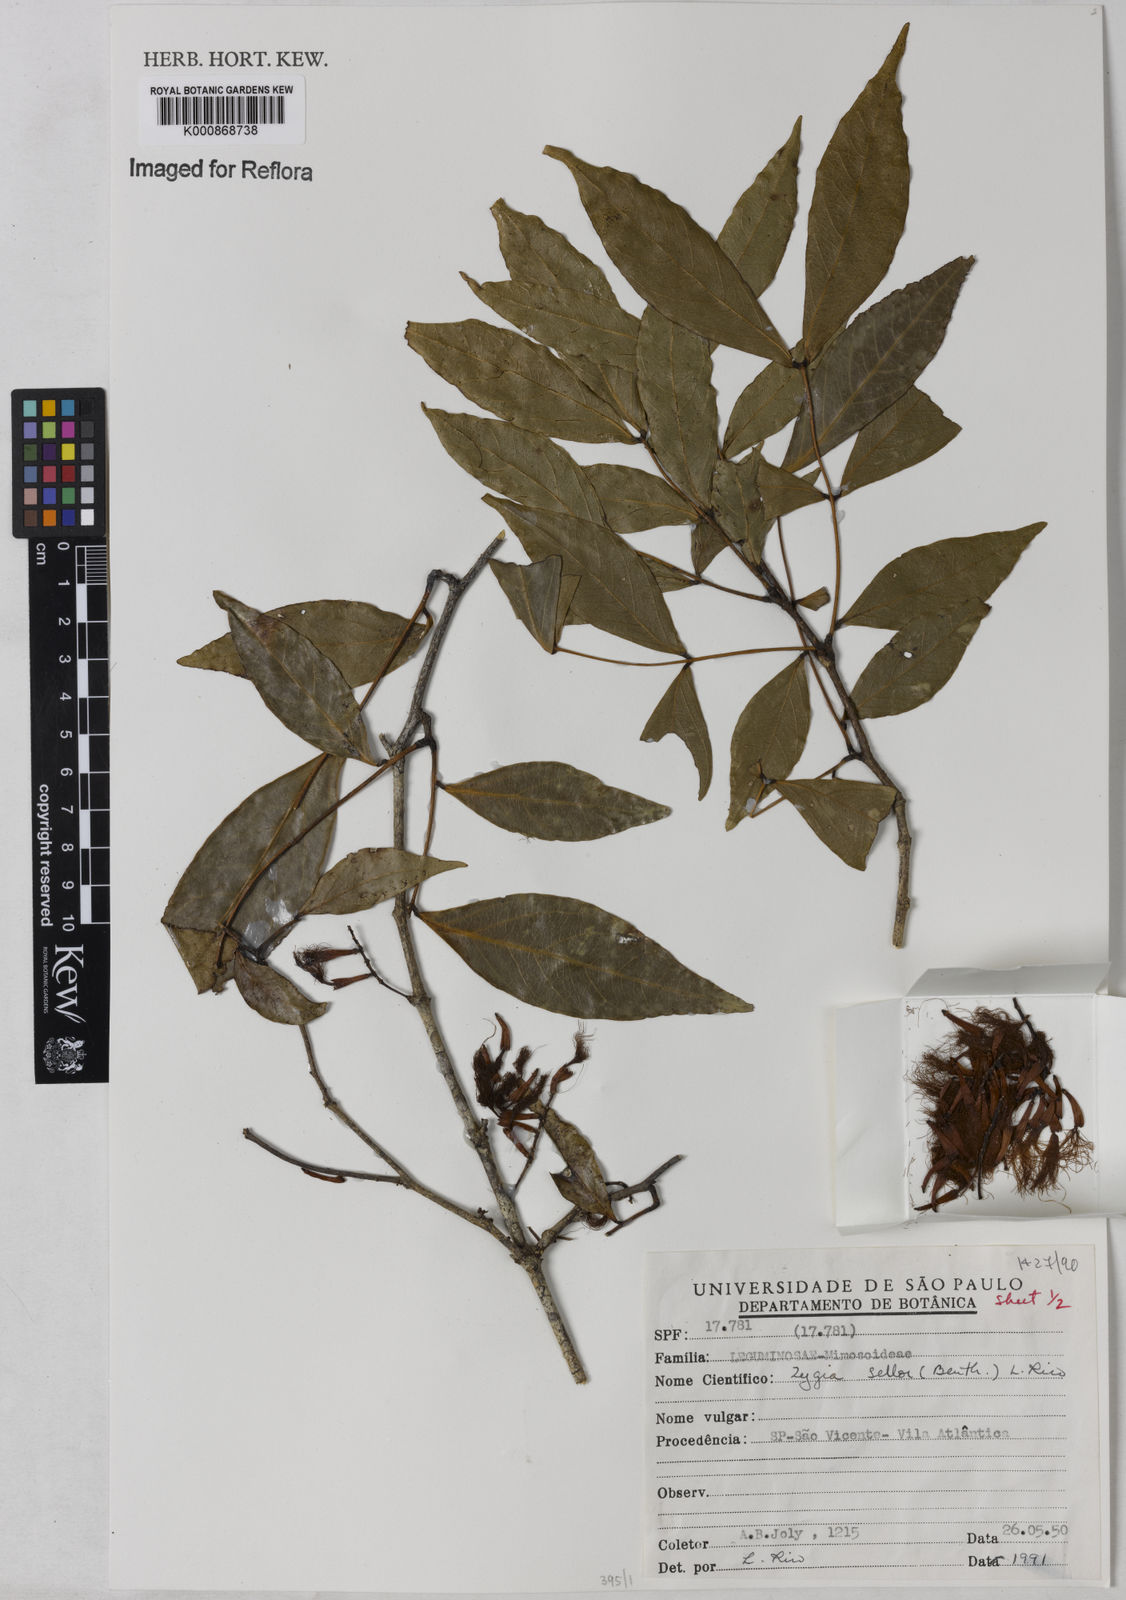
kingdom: Plantae
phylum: Tracheophyta
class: Magnoliopsida
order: Fabales
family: Fabaceae
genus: Zygia
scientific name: Zygia selloi
